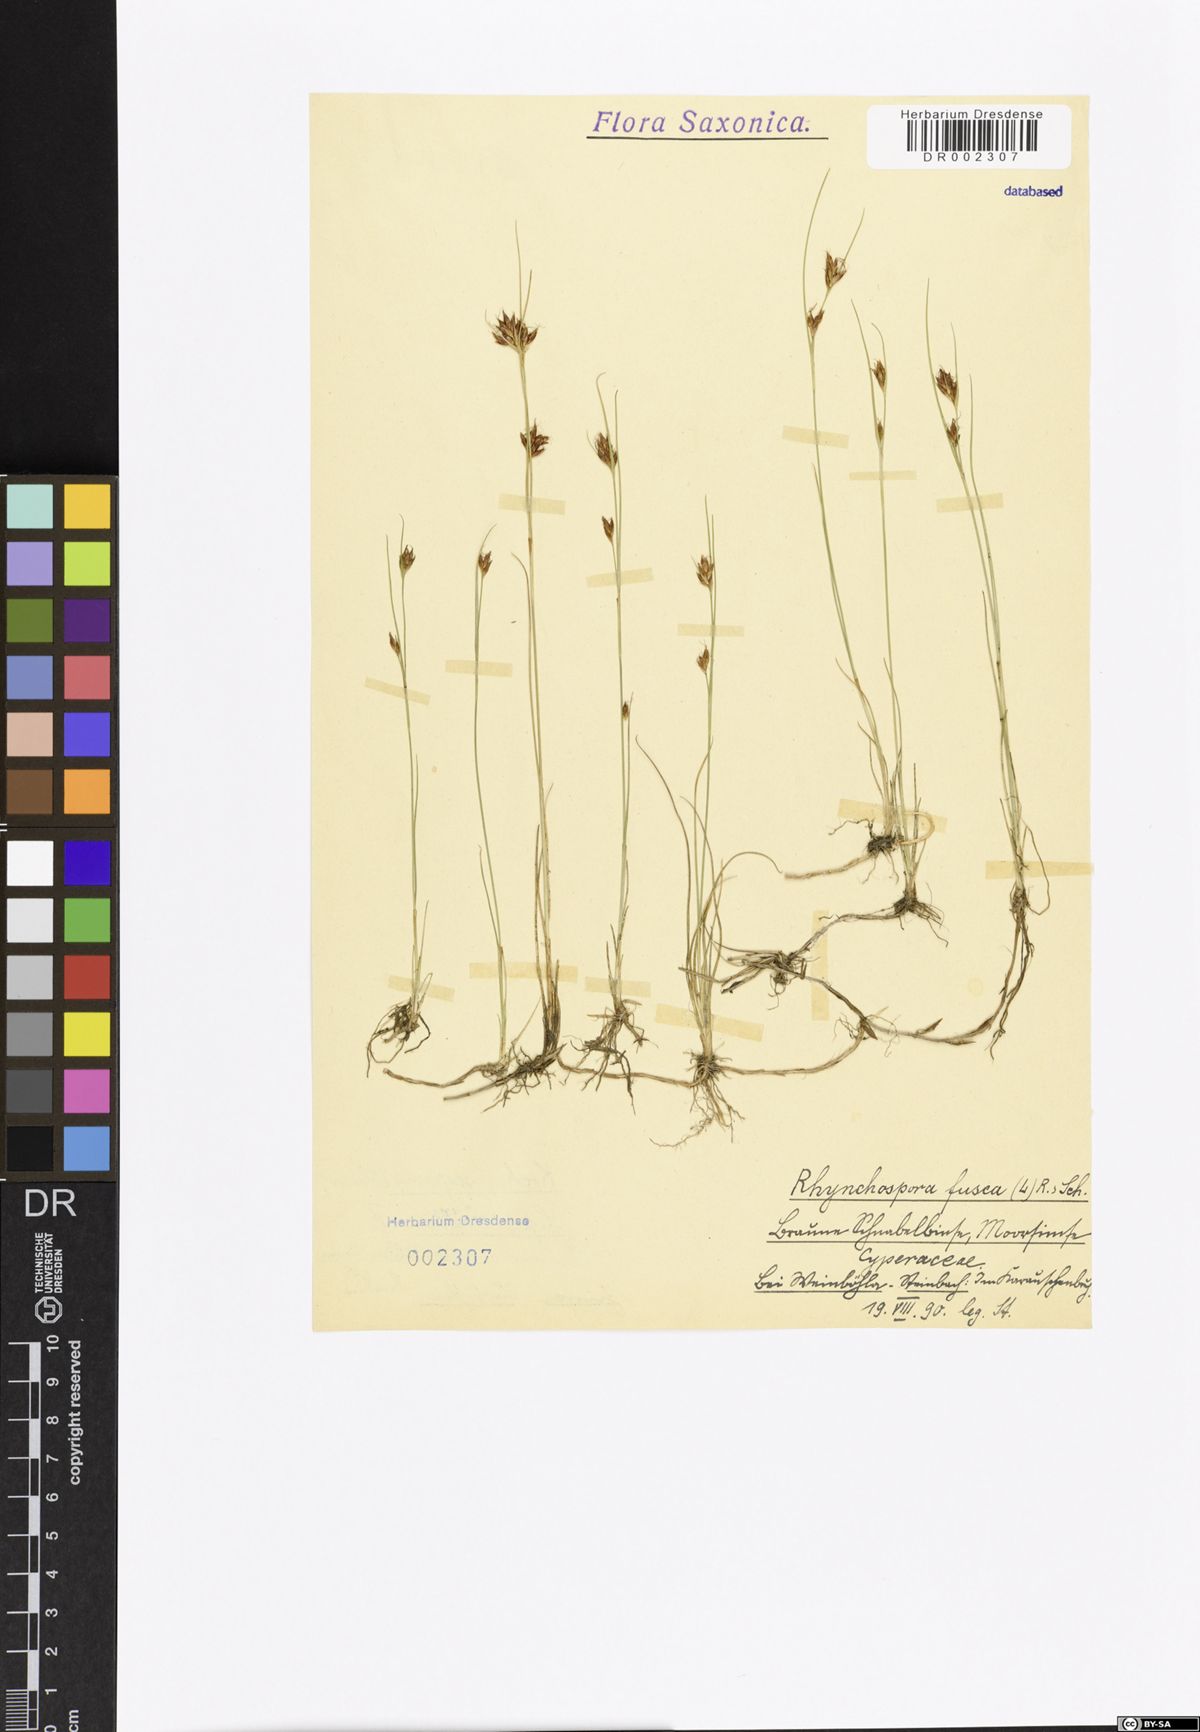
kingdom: Plantae
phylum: Tracheophyta
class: Liliopsida
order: Poales
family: Cyperaceae
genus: Rhynchospora
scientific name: Rhynchospora fusca
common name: Brown beak-sedge
